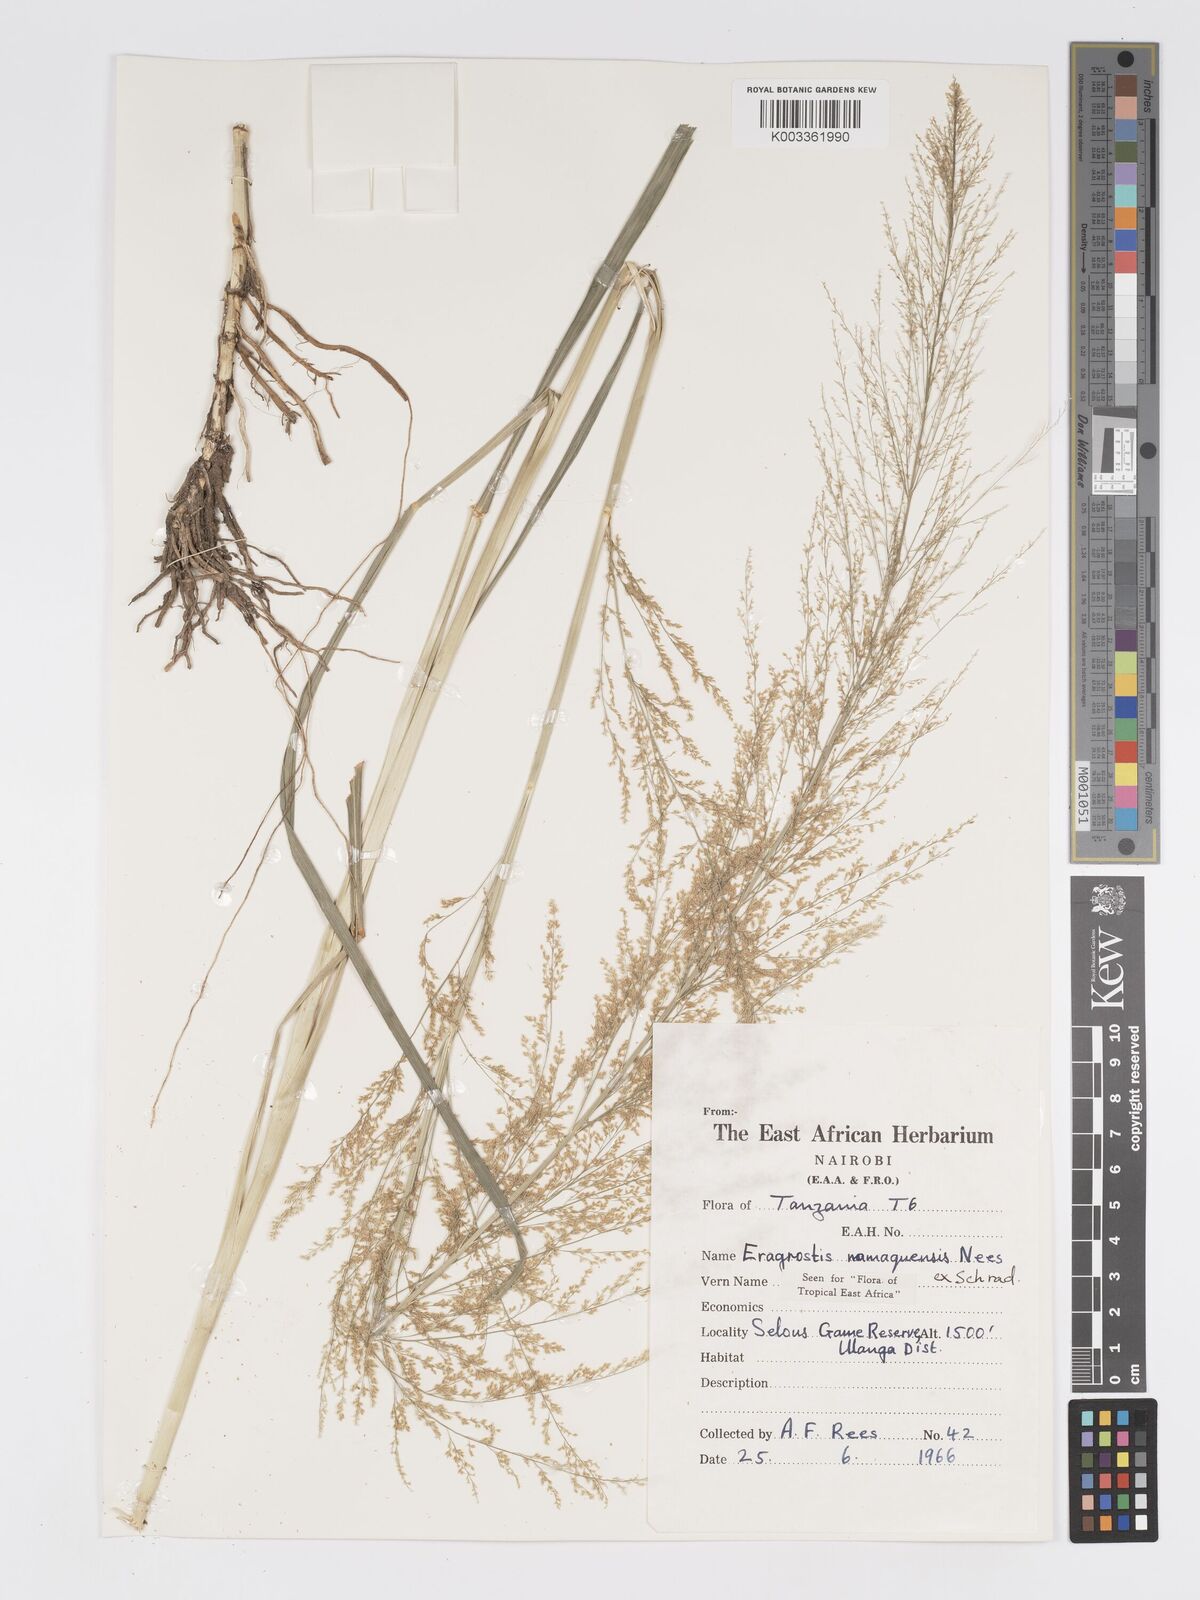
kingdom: Plantae
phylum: Tracheophyta
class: Liliopsida
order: Poales
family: Poaceae
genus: Eragrostis
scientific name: Eragrostis japonica
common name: Pond lovegrass
